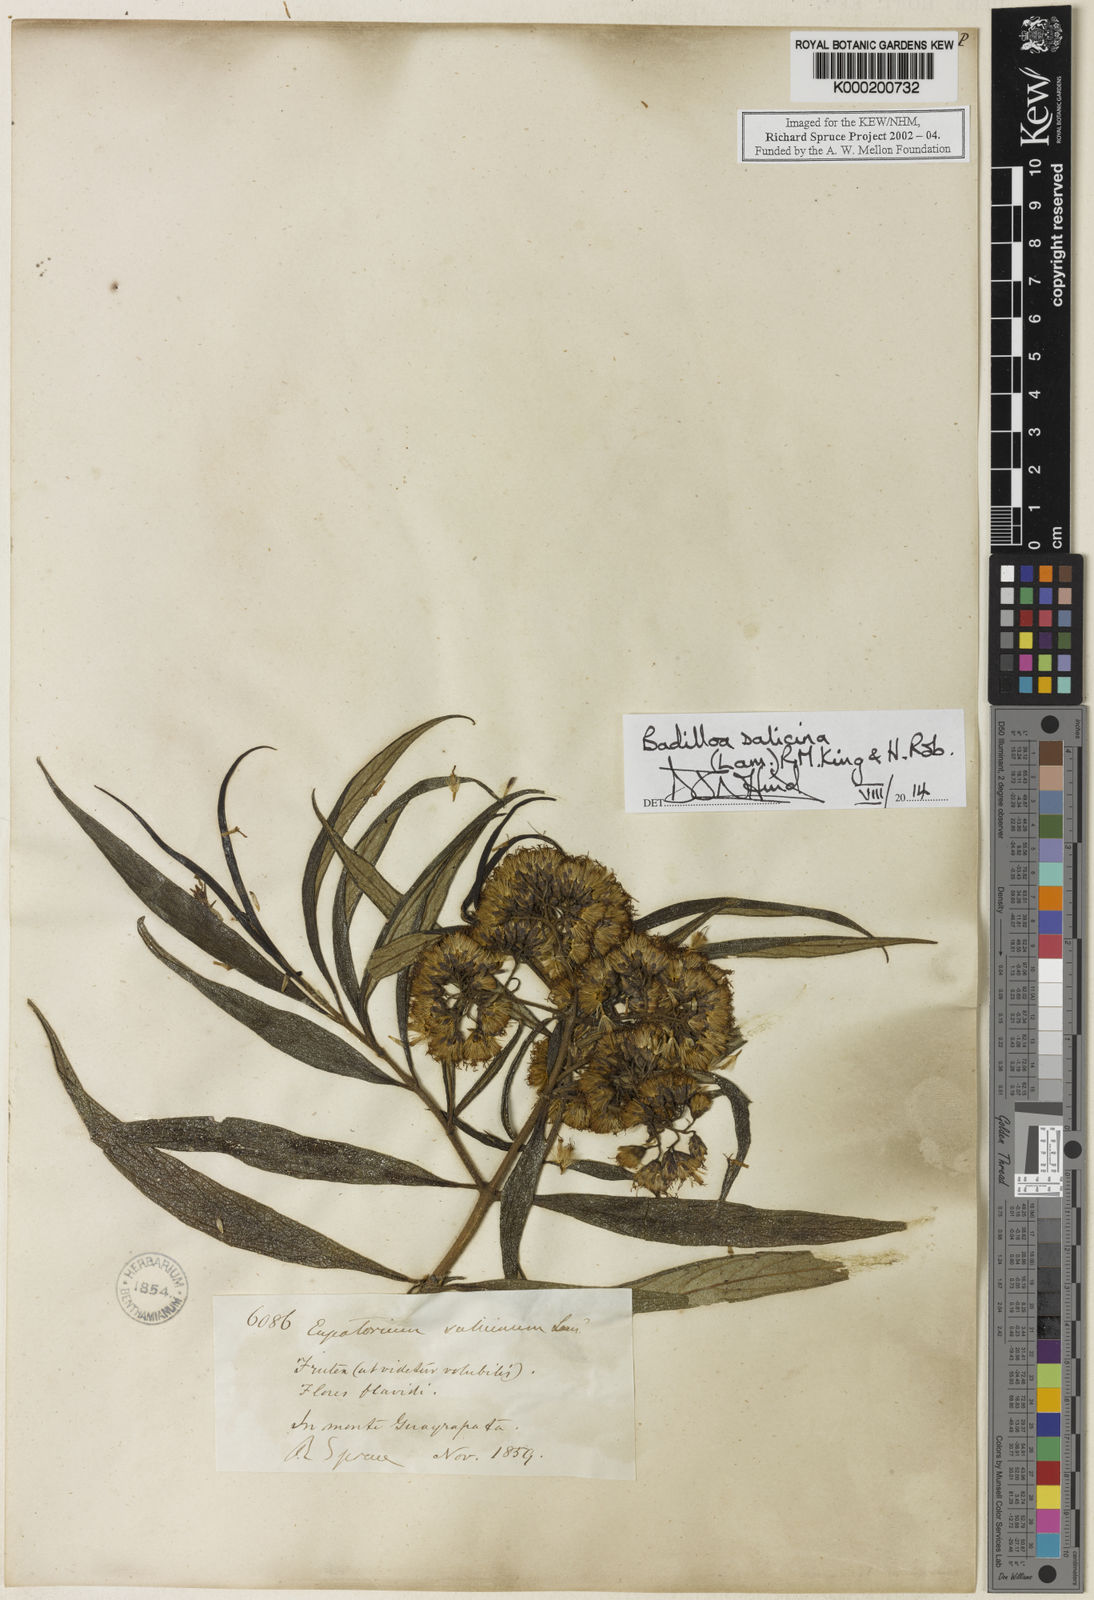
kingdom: Plantae
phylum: Tracheophyta
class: Magnoliopsida
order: Asterales
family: Asteraceae
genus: Badilloa
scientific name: Badilloa salicina
